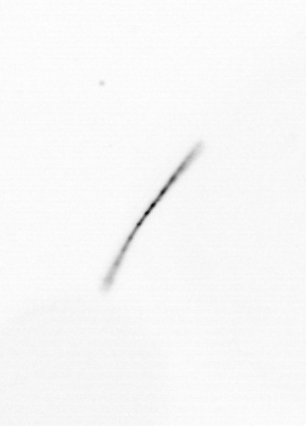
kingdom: Chromista
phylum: Ochrophyta
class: Bacillariophyceae
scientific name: Bacillariophyceae
